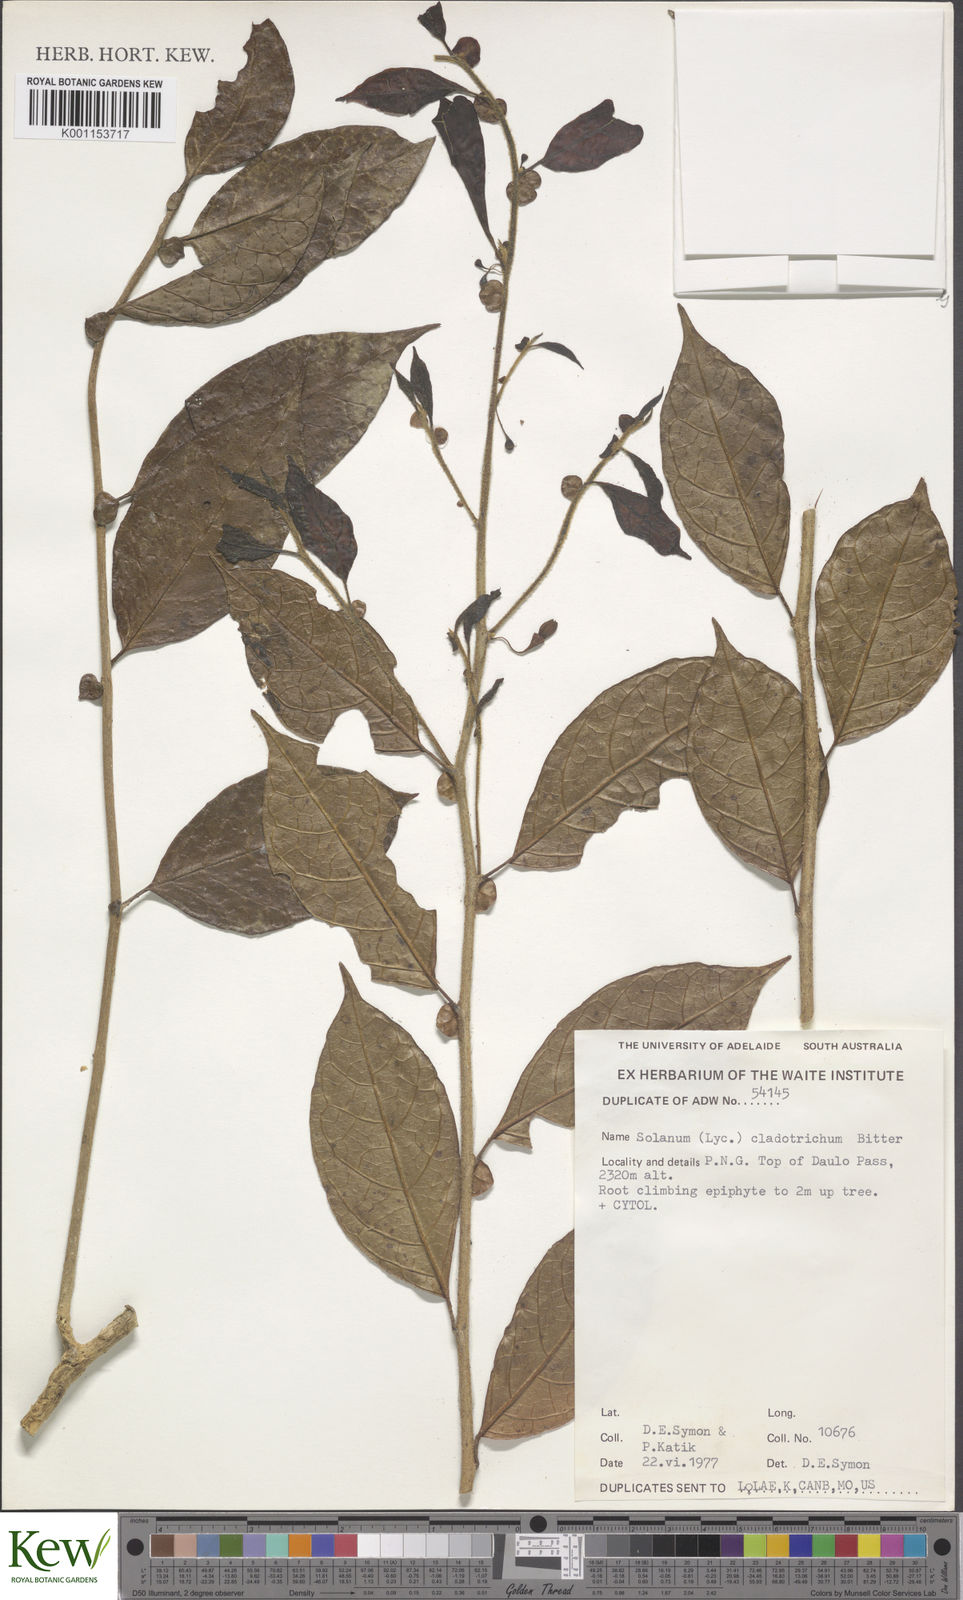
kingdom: Plantae
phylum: Tracheophyta
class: Magnoliopsida
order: Solanales
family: Solanaceae
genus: Solanum
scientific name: Solanum cladotrichum
